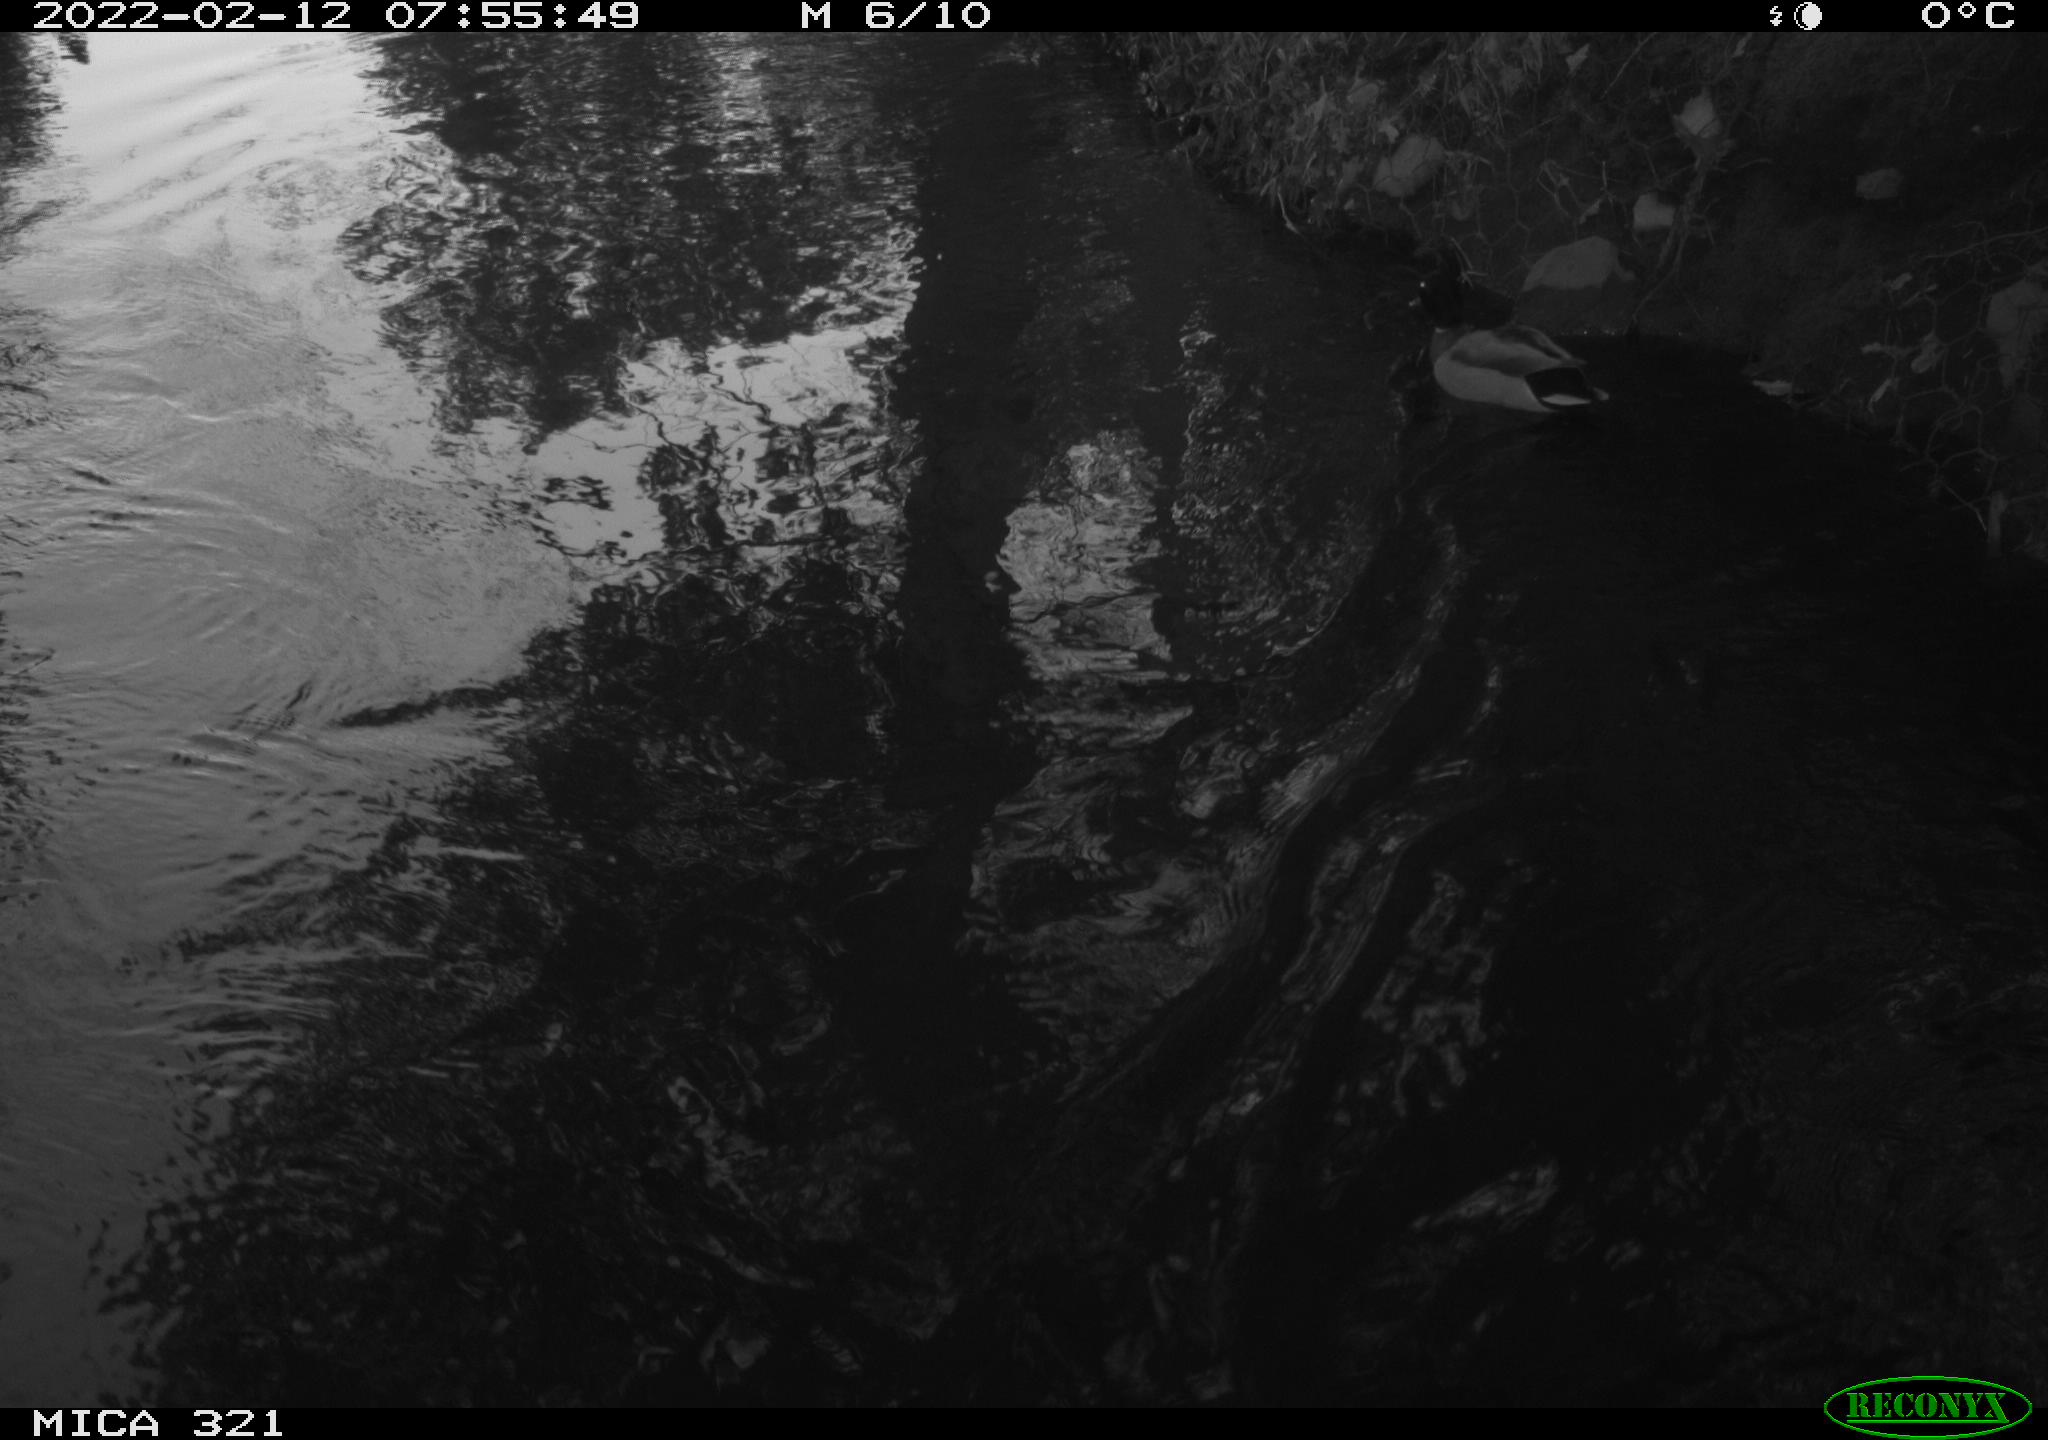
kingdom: Animalia
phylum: Chordata
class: Aves
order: Anseriformes
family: Anatidae
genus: Anas
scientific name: Anas platyrhynchos
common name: Mallard
